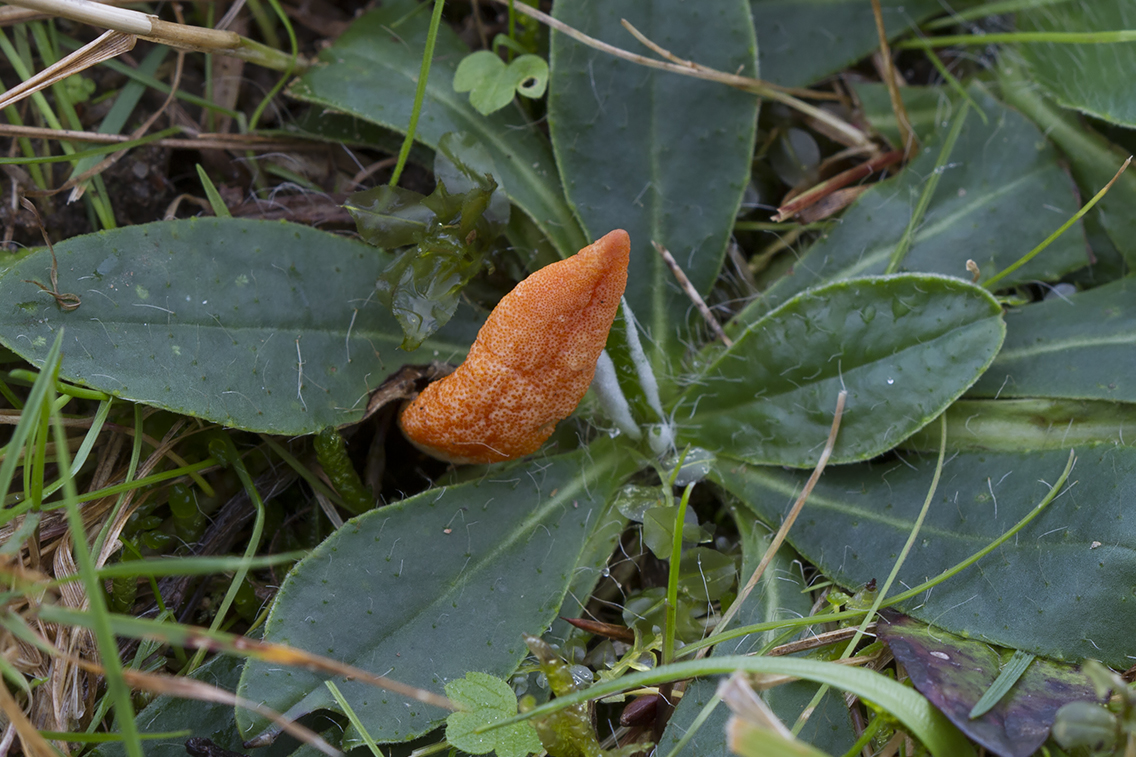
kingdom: Fungi
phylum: Ascomycota
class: Sordariomycetes
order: Hypocreales
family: Cordycipitaceae
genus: Cordyceps
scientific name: Cordyceps militaris
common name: puppe-snyltekølle
